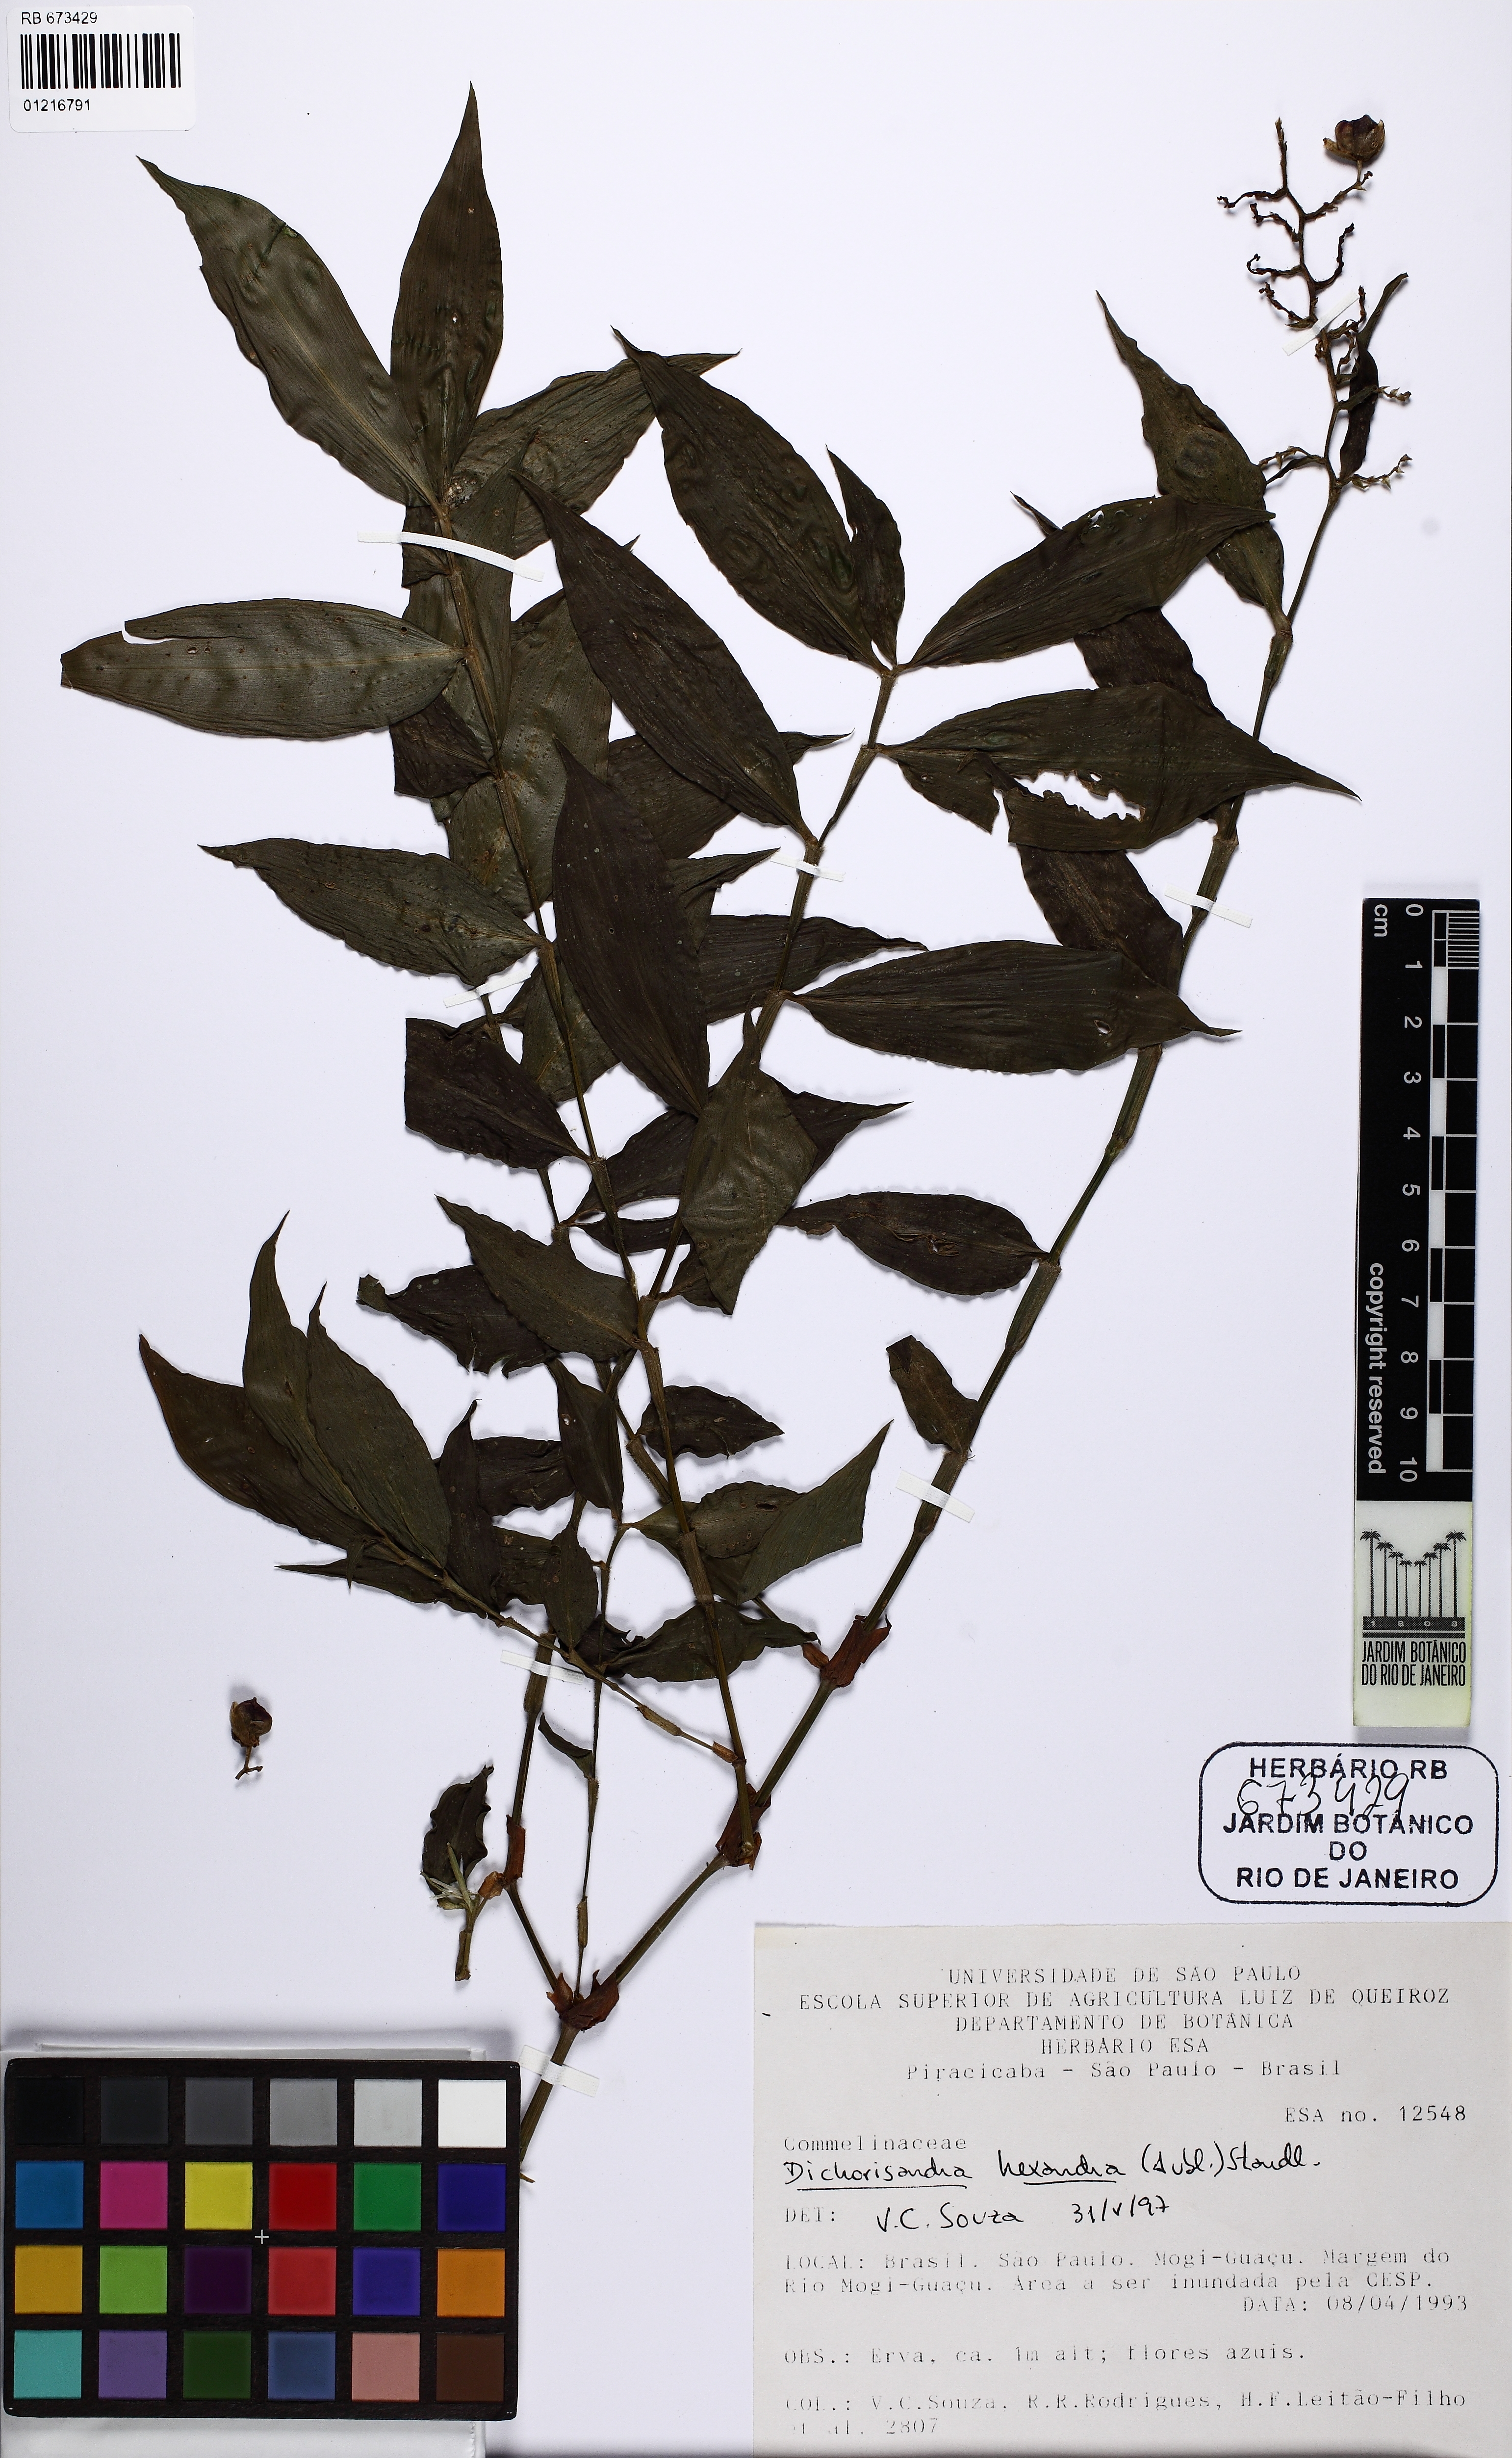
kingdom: Plantae
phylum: Tracheophyta
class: Liliopsida
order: Commelinales
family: Commelinaceae
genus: Dichorisandra
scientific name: Dichorisandra hexandra
